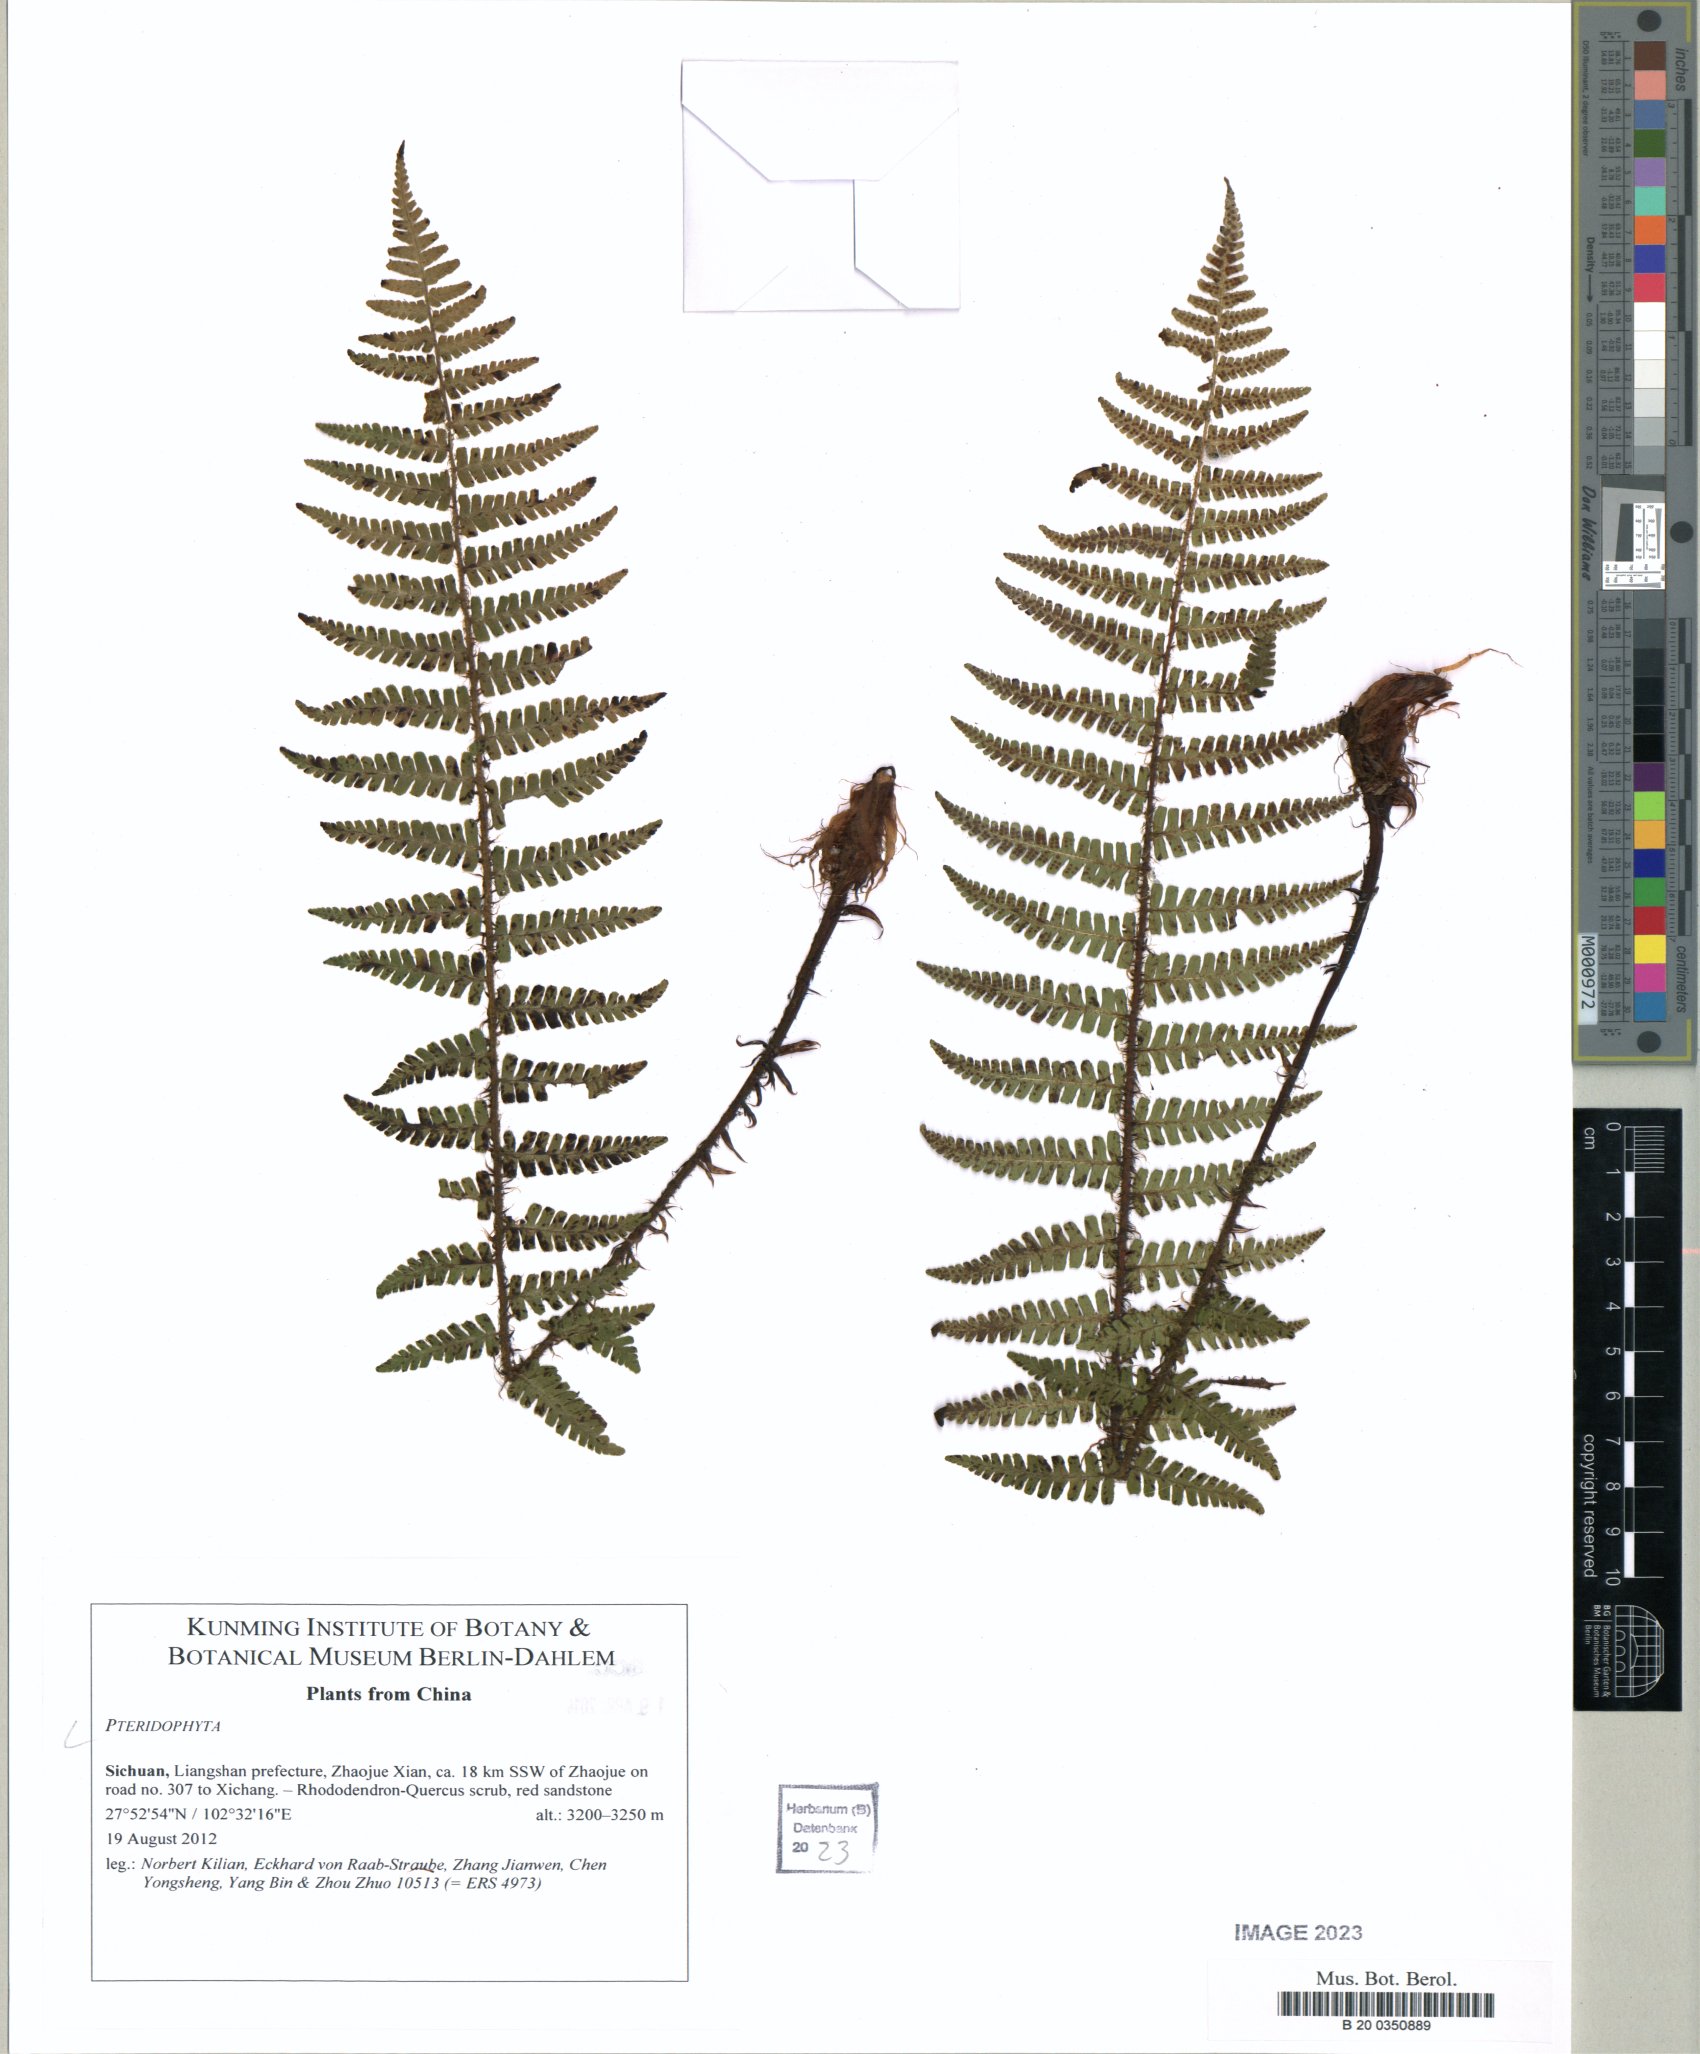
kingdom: Plantae
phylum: Tracheophyta
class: Polypodiopsida
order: Polypodiales
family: Dryopteridaceae
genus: Dryopteris
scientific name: Dryopteris wallichiana
